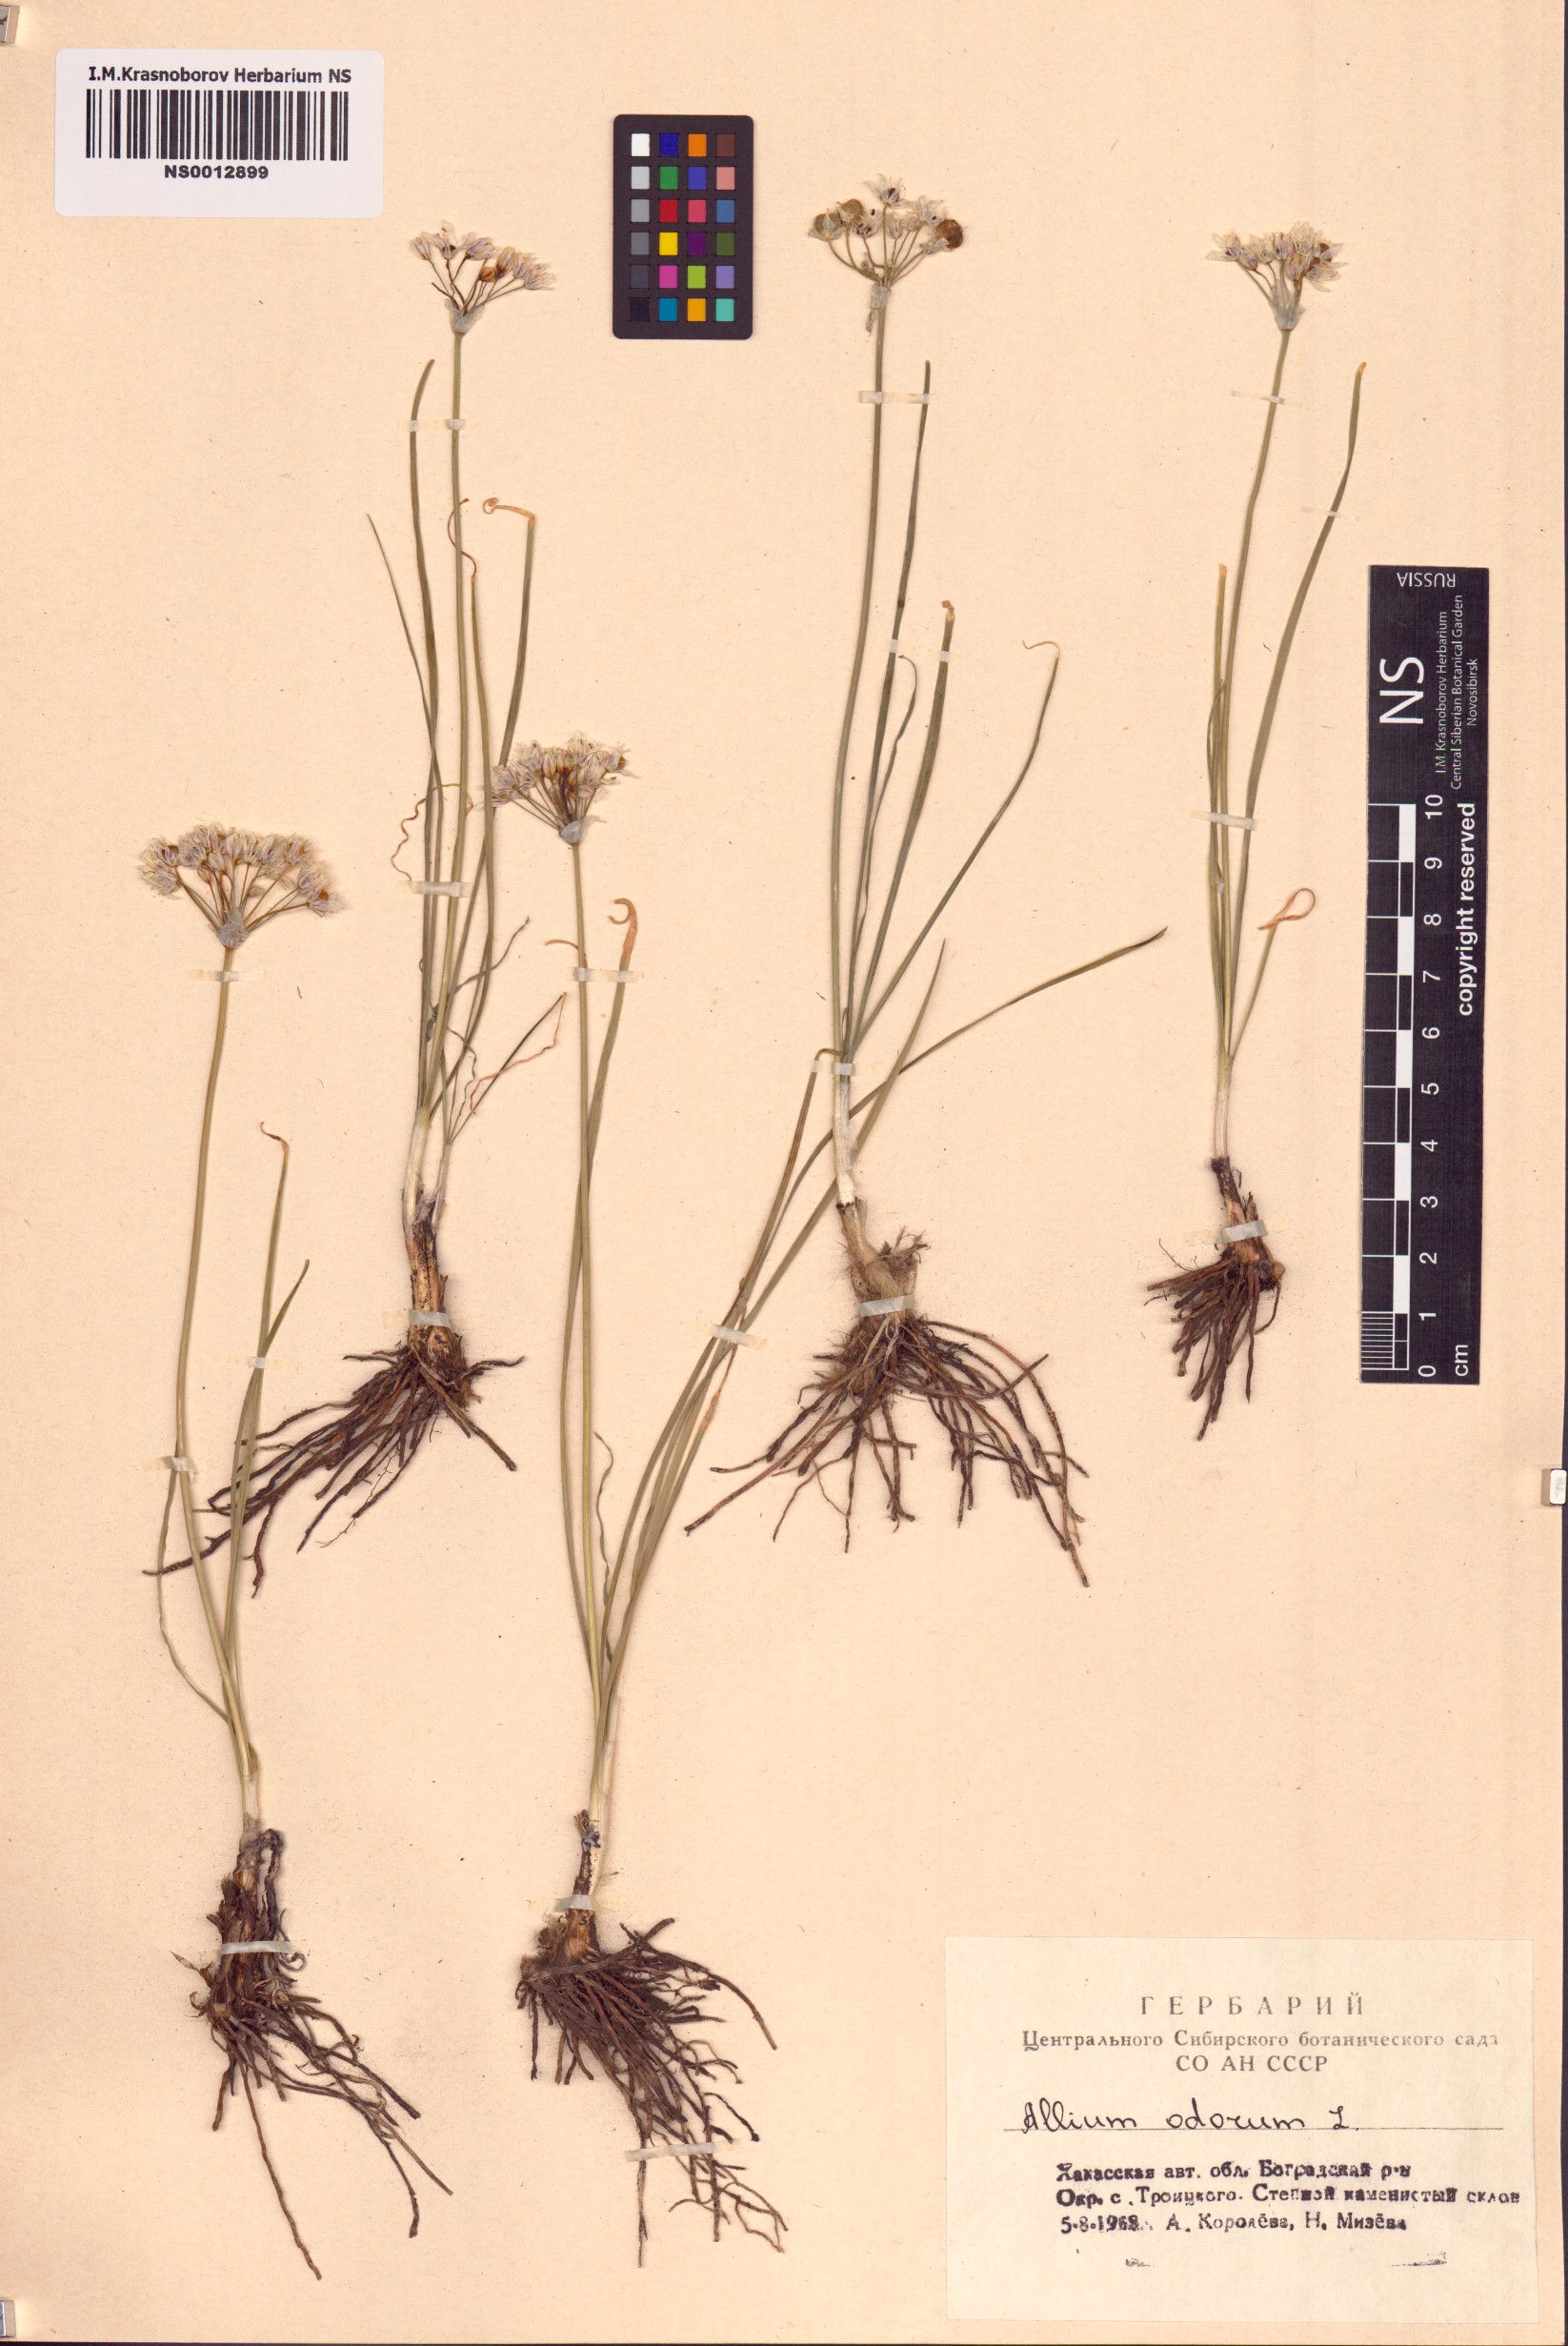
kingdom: Plantae
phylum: Tracheophyta
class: Liliopsida
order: Asparagales
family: Amaryllidaceae
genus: Allium
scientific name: Allium ramosum
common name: Fragrant garlic
